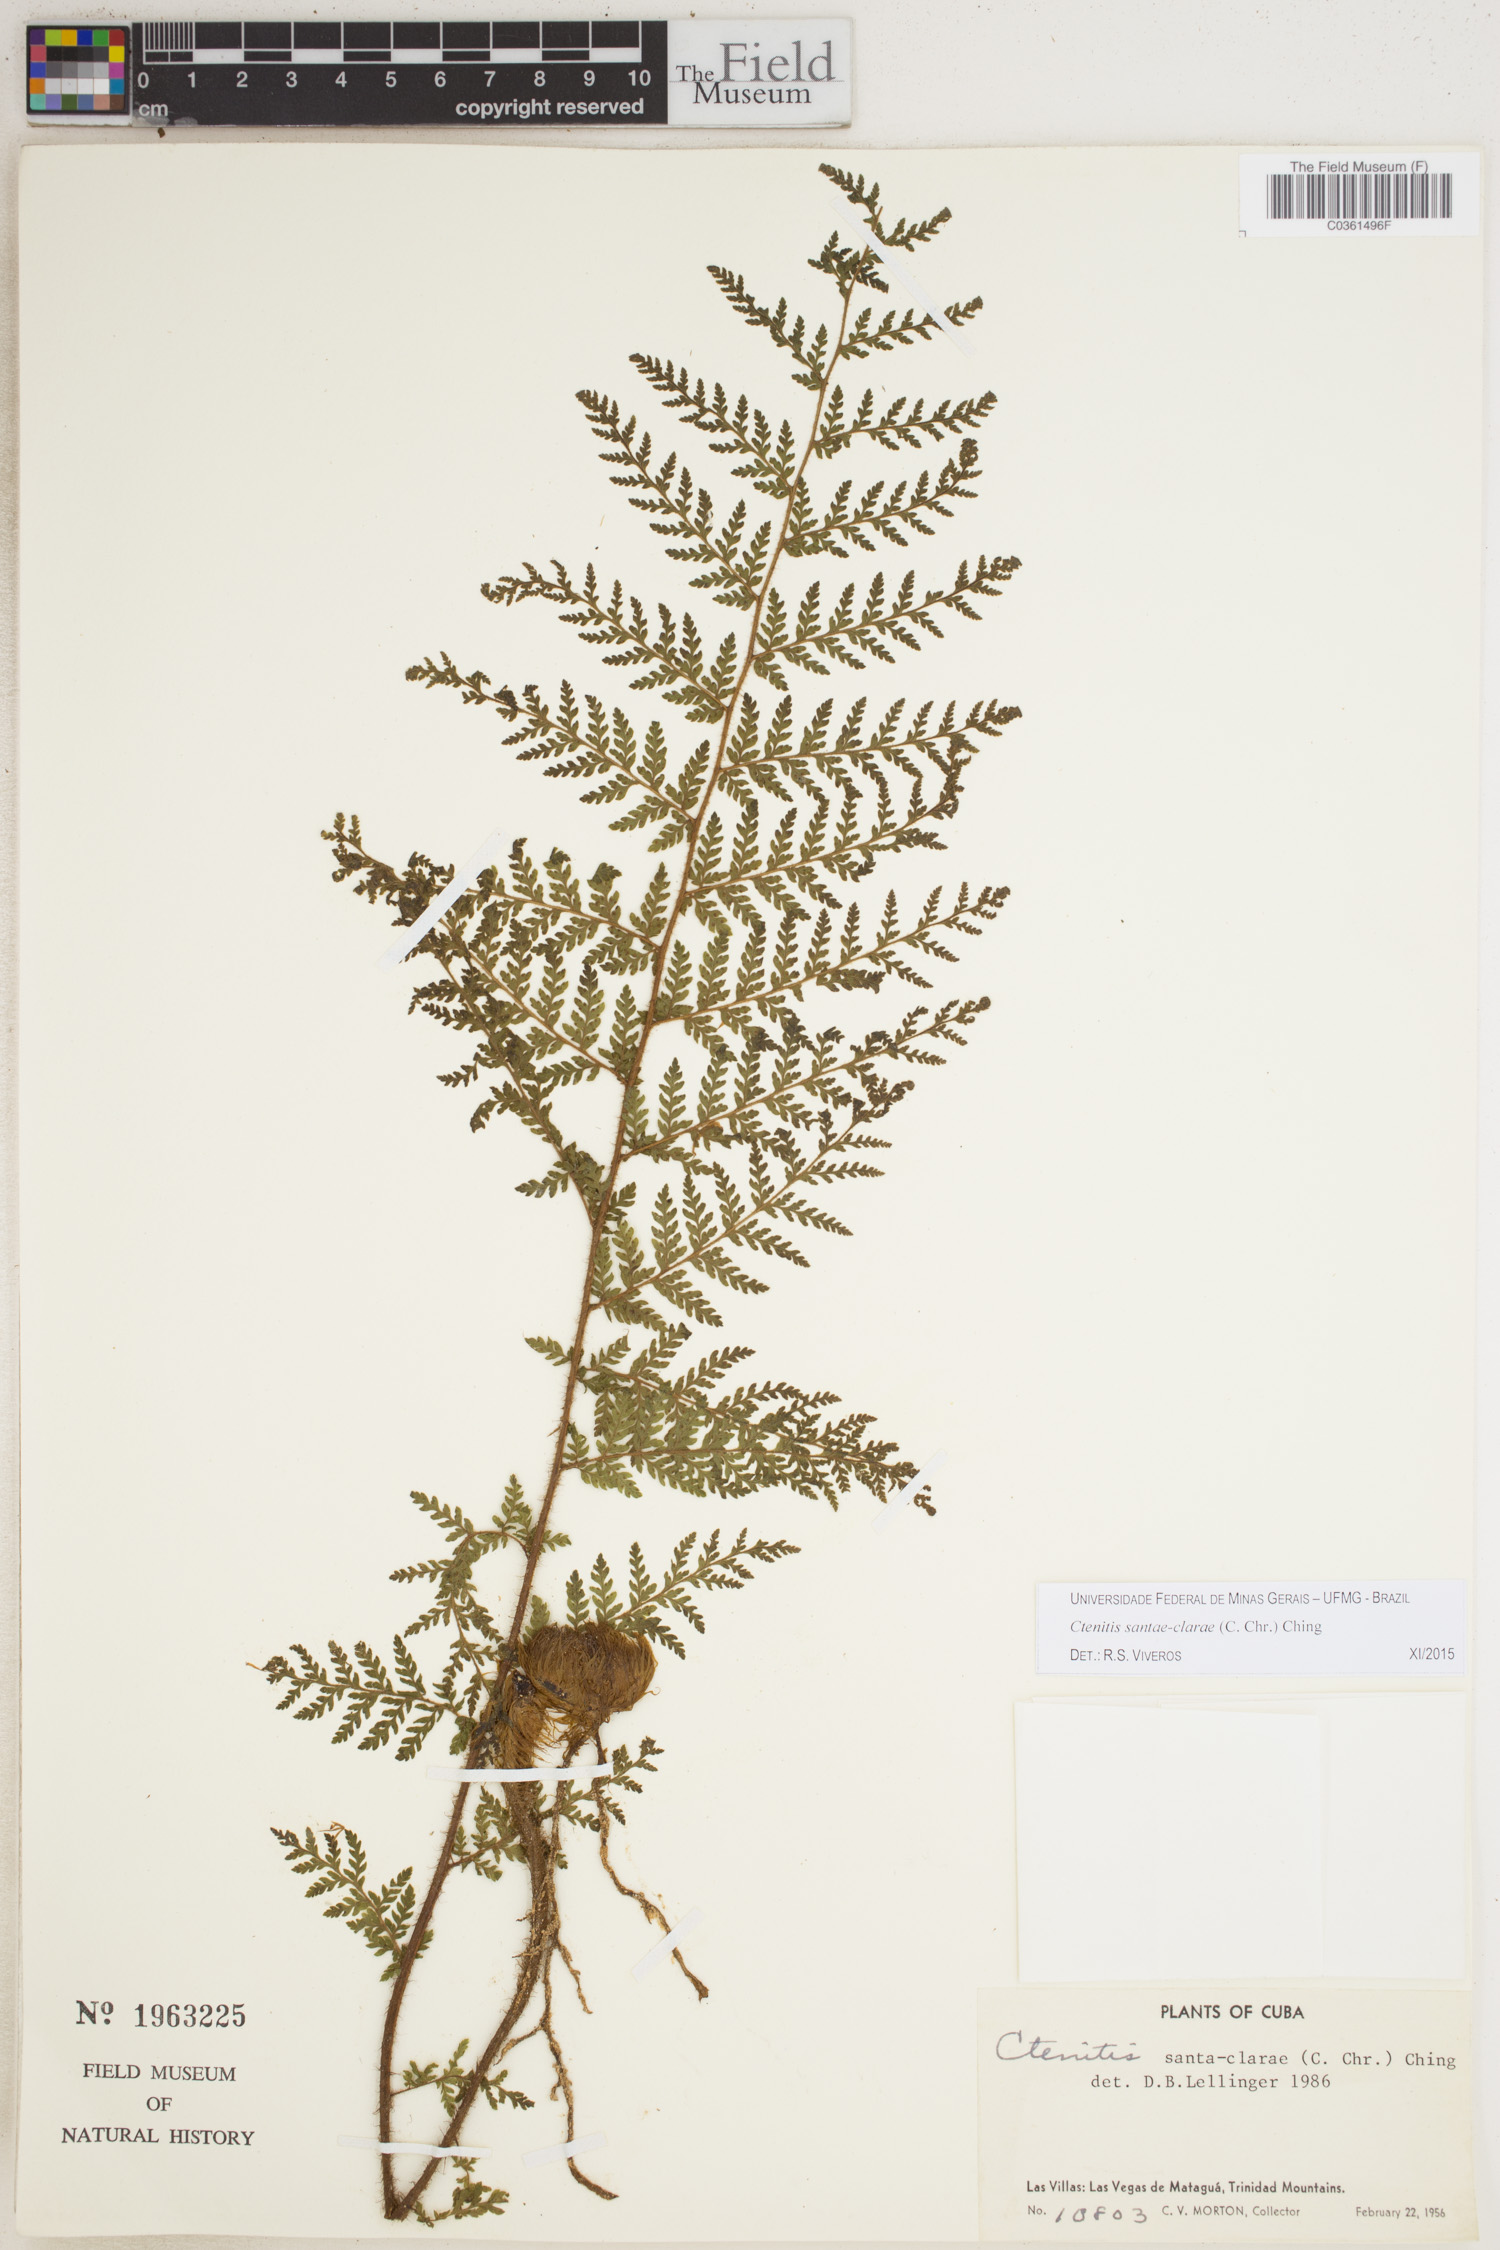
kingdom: Plantae
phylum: Tracheophyta
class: Polypodiopsida
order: Polypodiales
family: Dryopteridaceae
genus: Ctenitis
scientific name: Ctenitis santae-clarae
